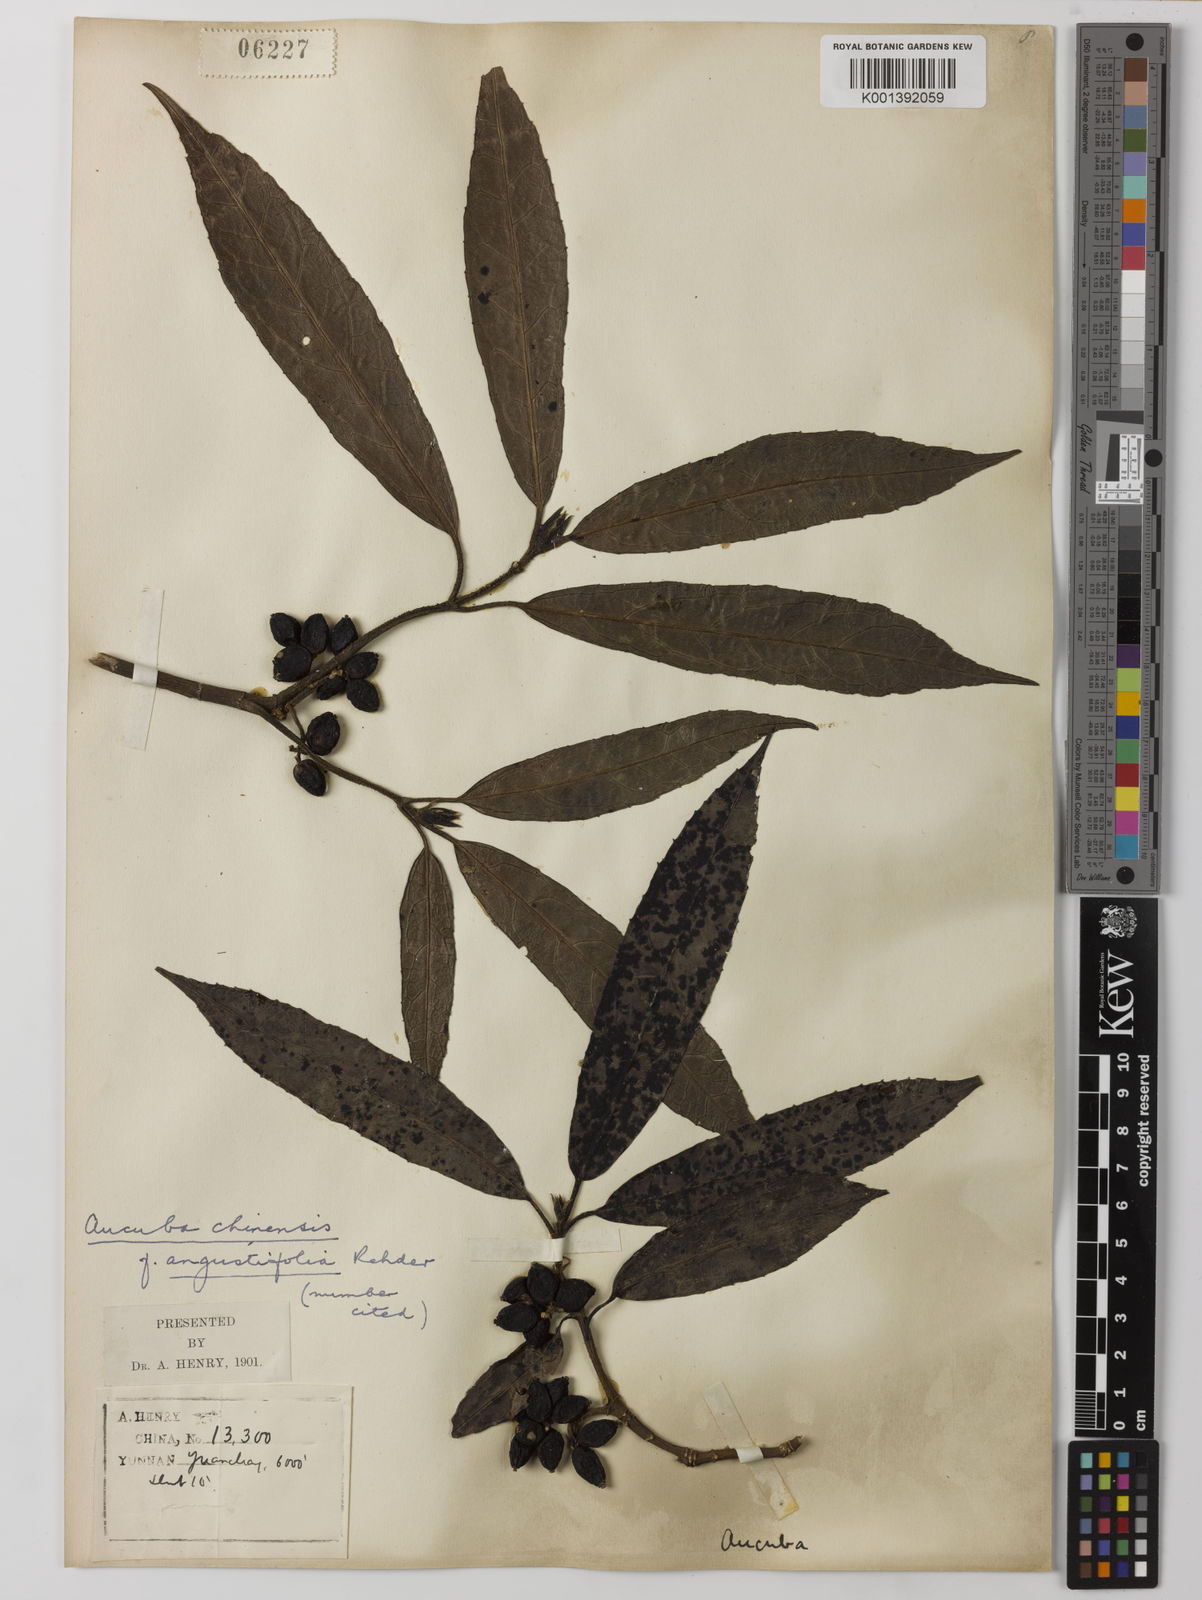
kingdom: Plantae
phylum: Tracheophyta
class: Magnoliopsida
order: Garryales
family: Garryaceae
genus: Aucuba
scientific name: Aucuba chinensis
